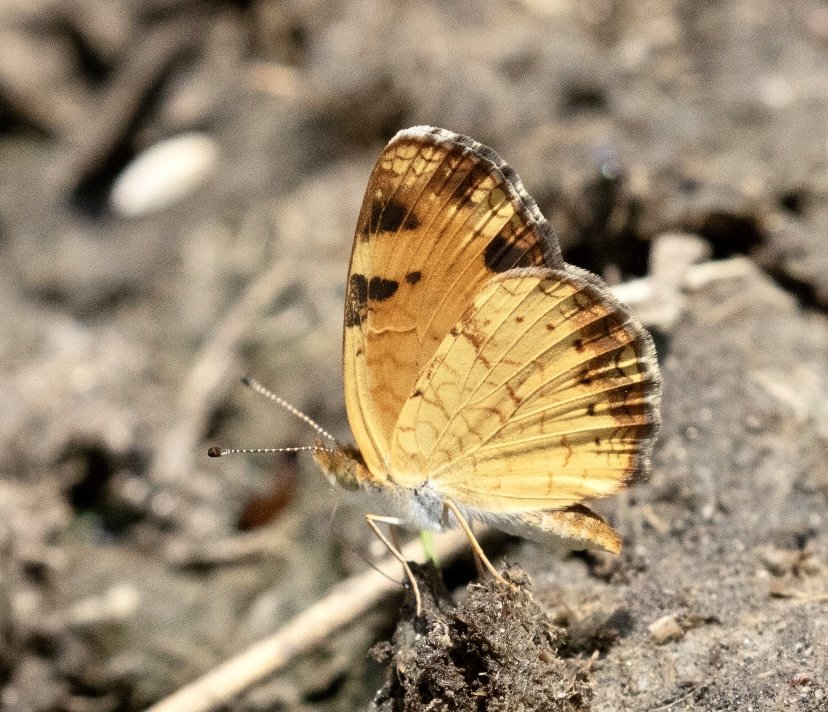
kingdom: Animalia
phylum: Arthropoda
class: Insecta
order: Lepidoptera
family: Nymphalidae
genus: Phyciodes
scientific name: Phyciodes tharos
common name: Pearl Crescent
